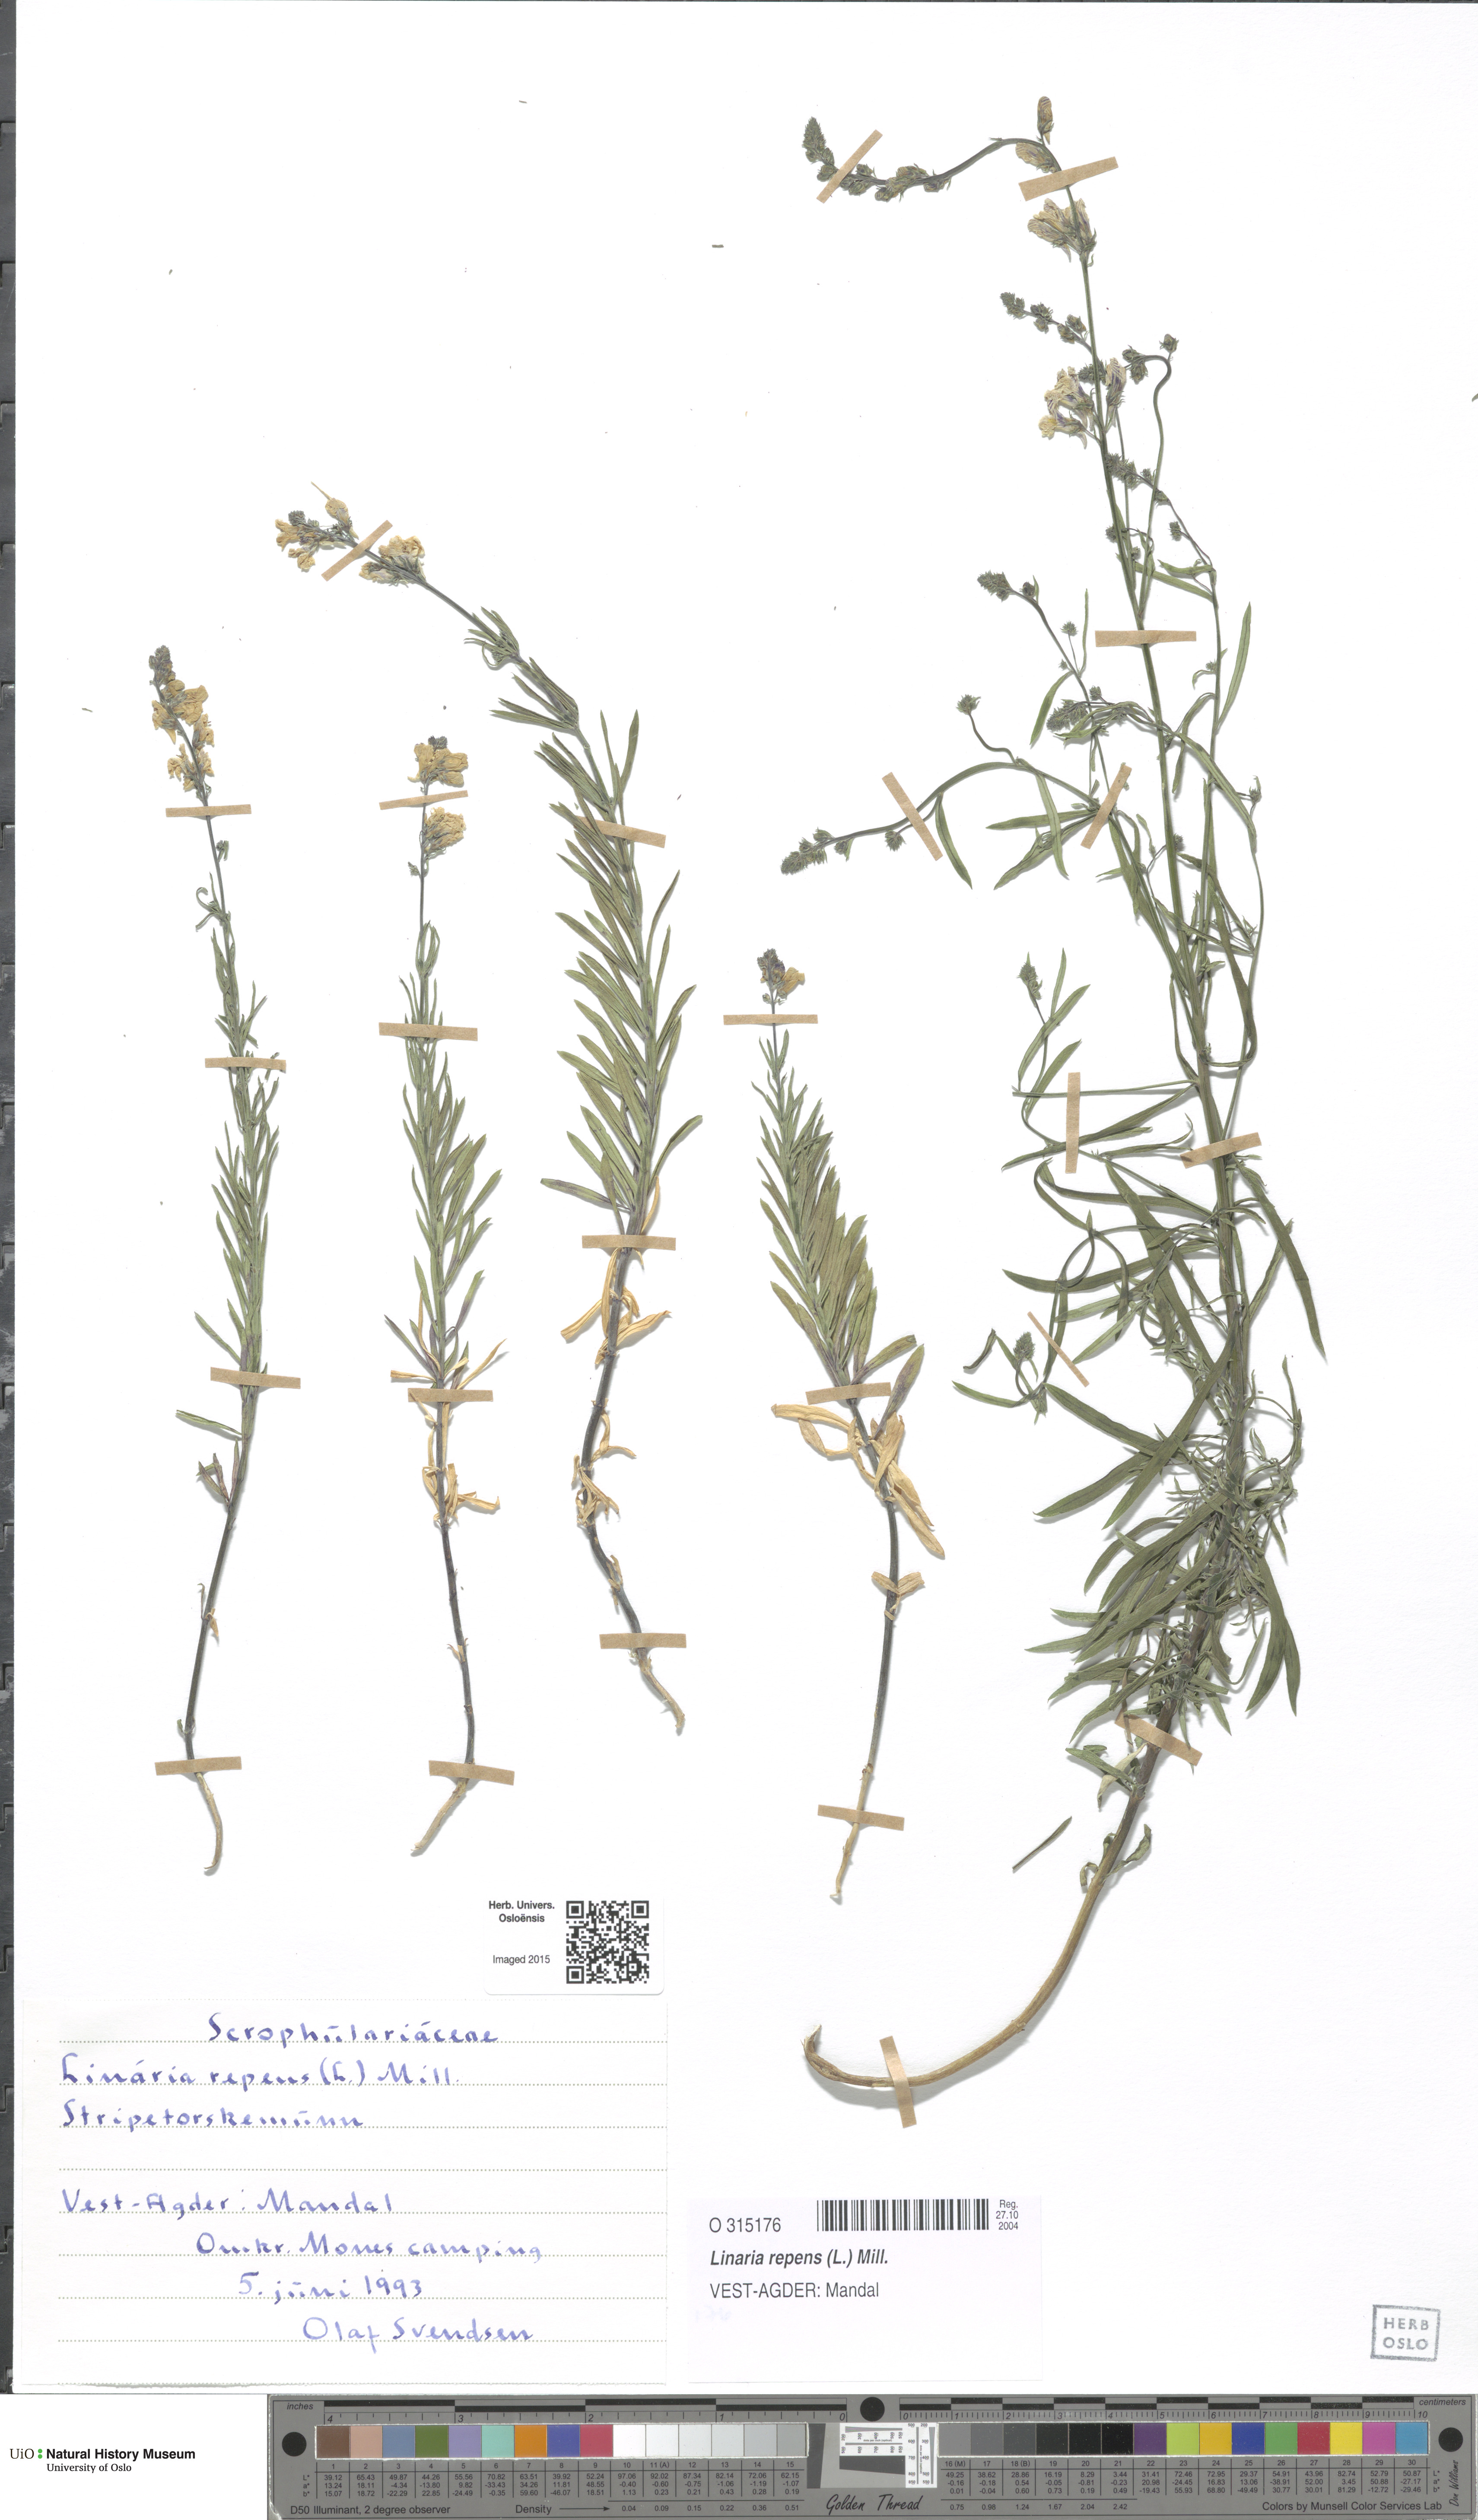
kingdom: Plantae
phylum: Tracheophyta
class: Magnoliopsida
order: Lamiales
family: Plantaginaceae
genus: Linaria
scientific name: Linaria repens
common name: Pale toadflax
